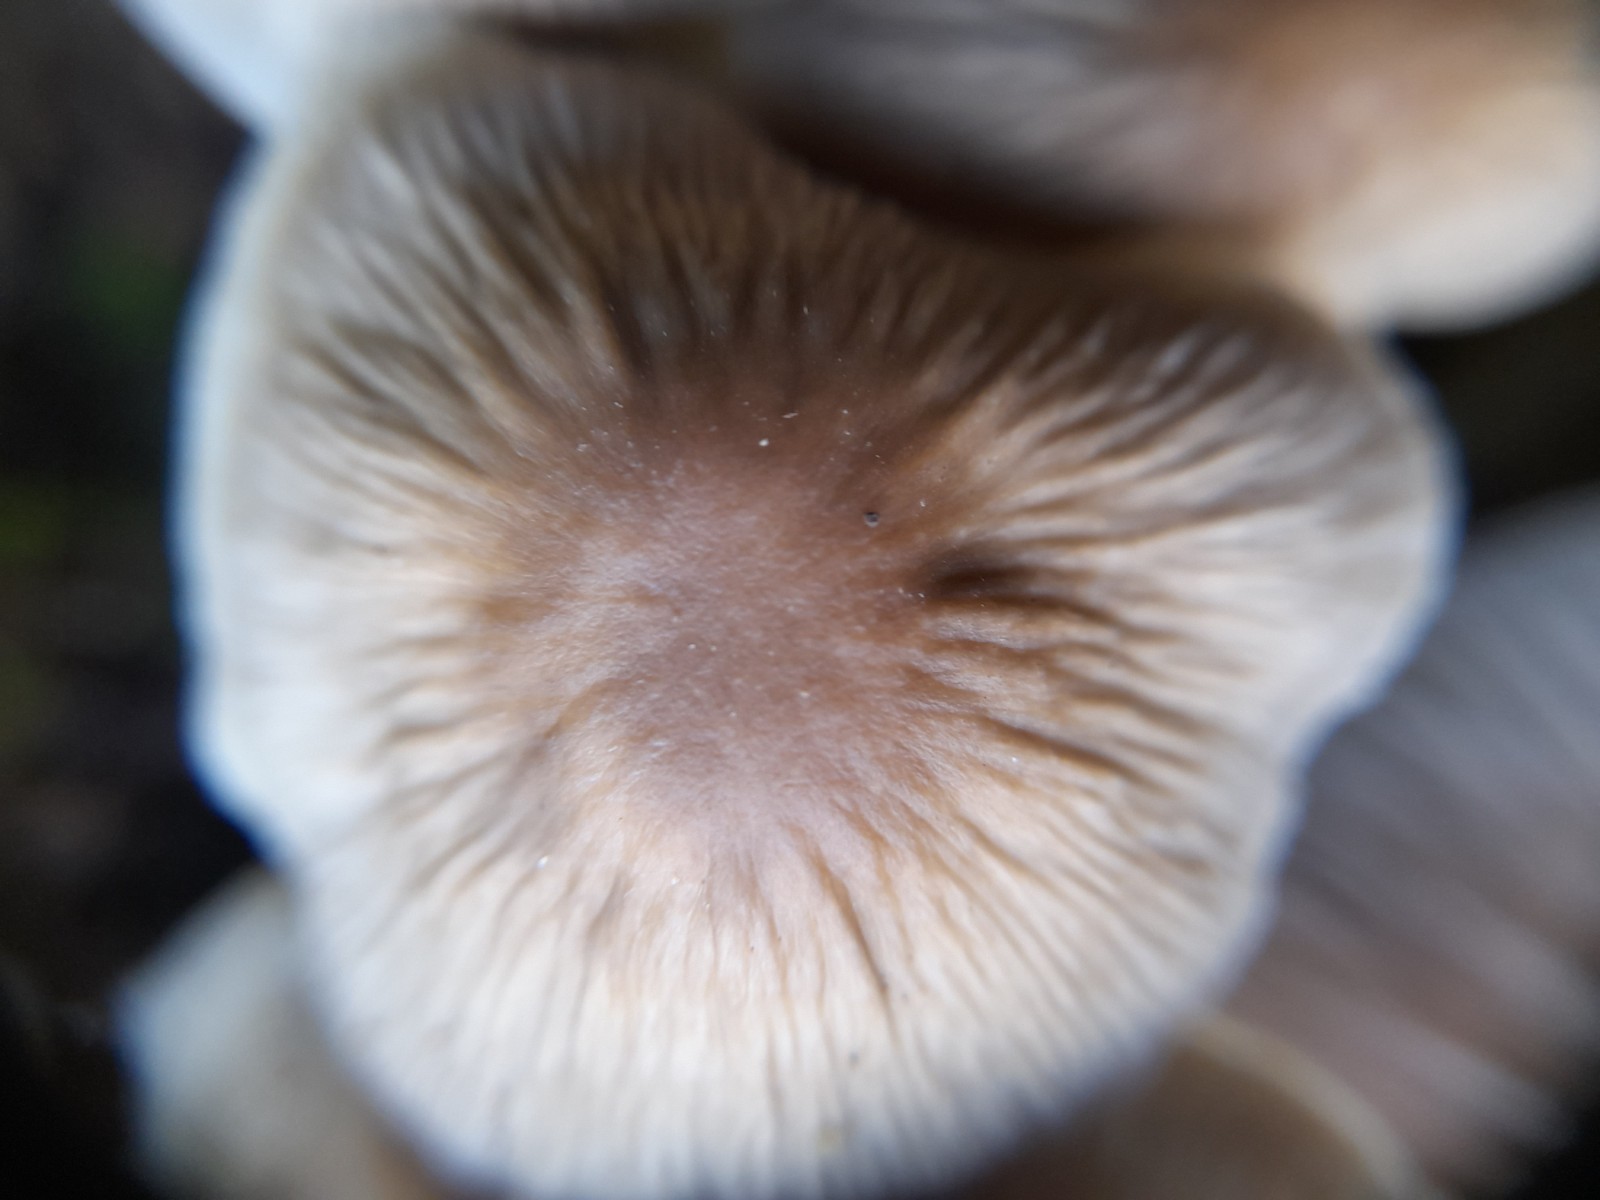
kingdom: Fungi
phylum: Basidiomycota
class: Agaricomycetes
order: Agaricales
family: Mycenaceae
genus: Mycena
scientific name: Mycena galericulata
